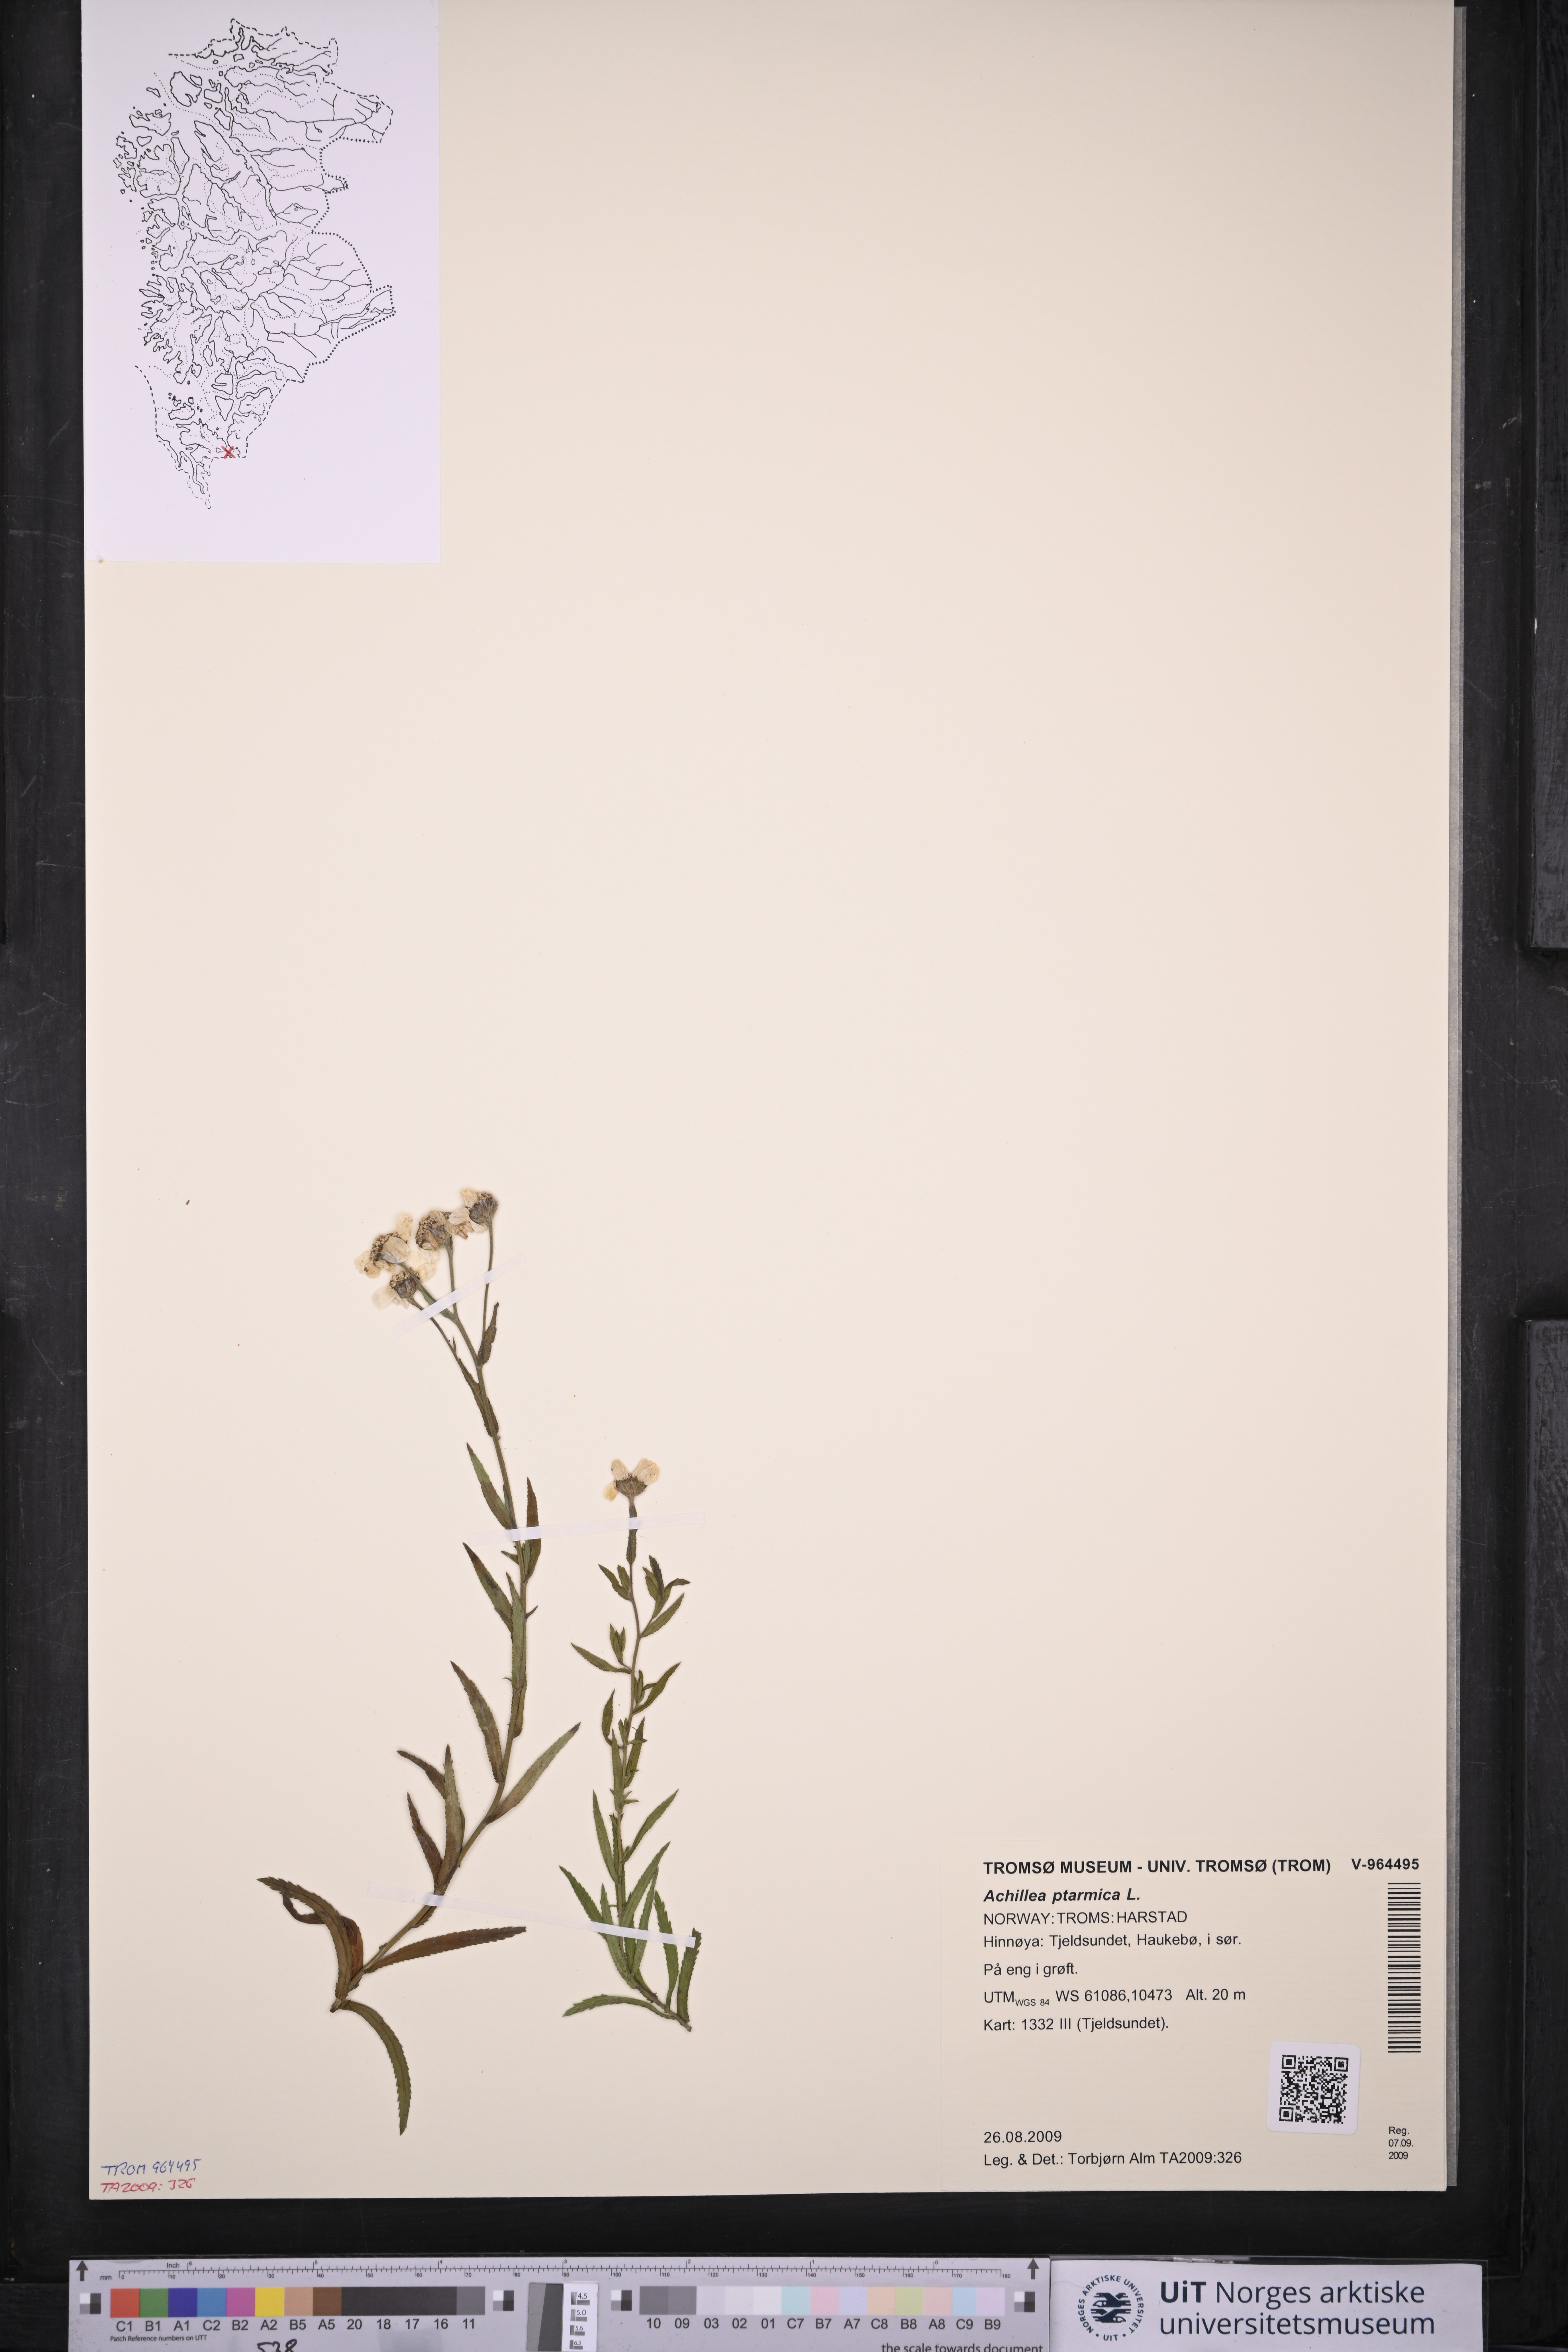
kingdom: Plantae
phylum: Tracheophyta
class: Magnoliopsida
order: Asterales
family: Asteraceae
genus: Achillea
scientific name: Achillea ptarmica
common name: Sneezeweed
